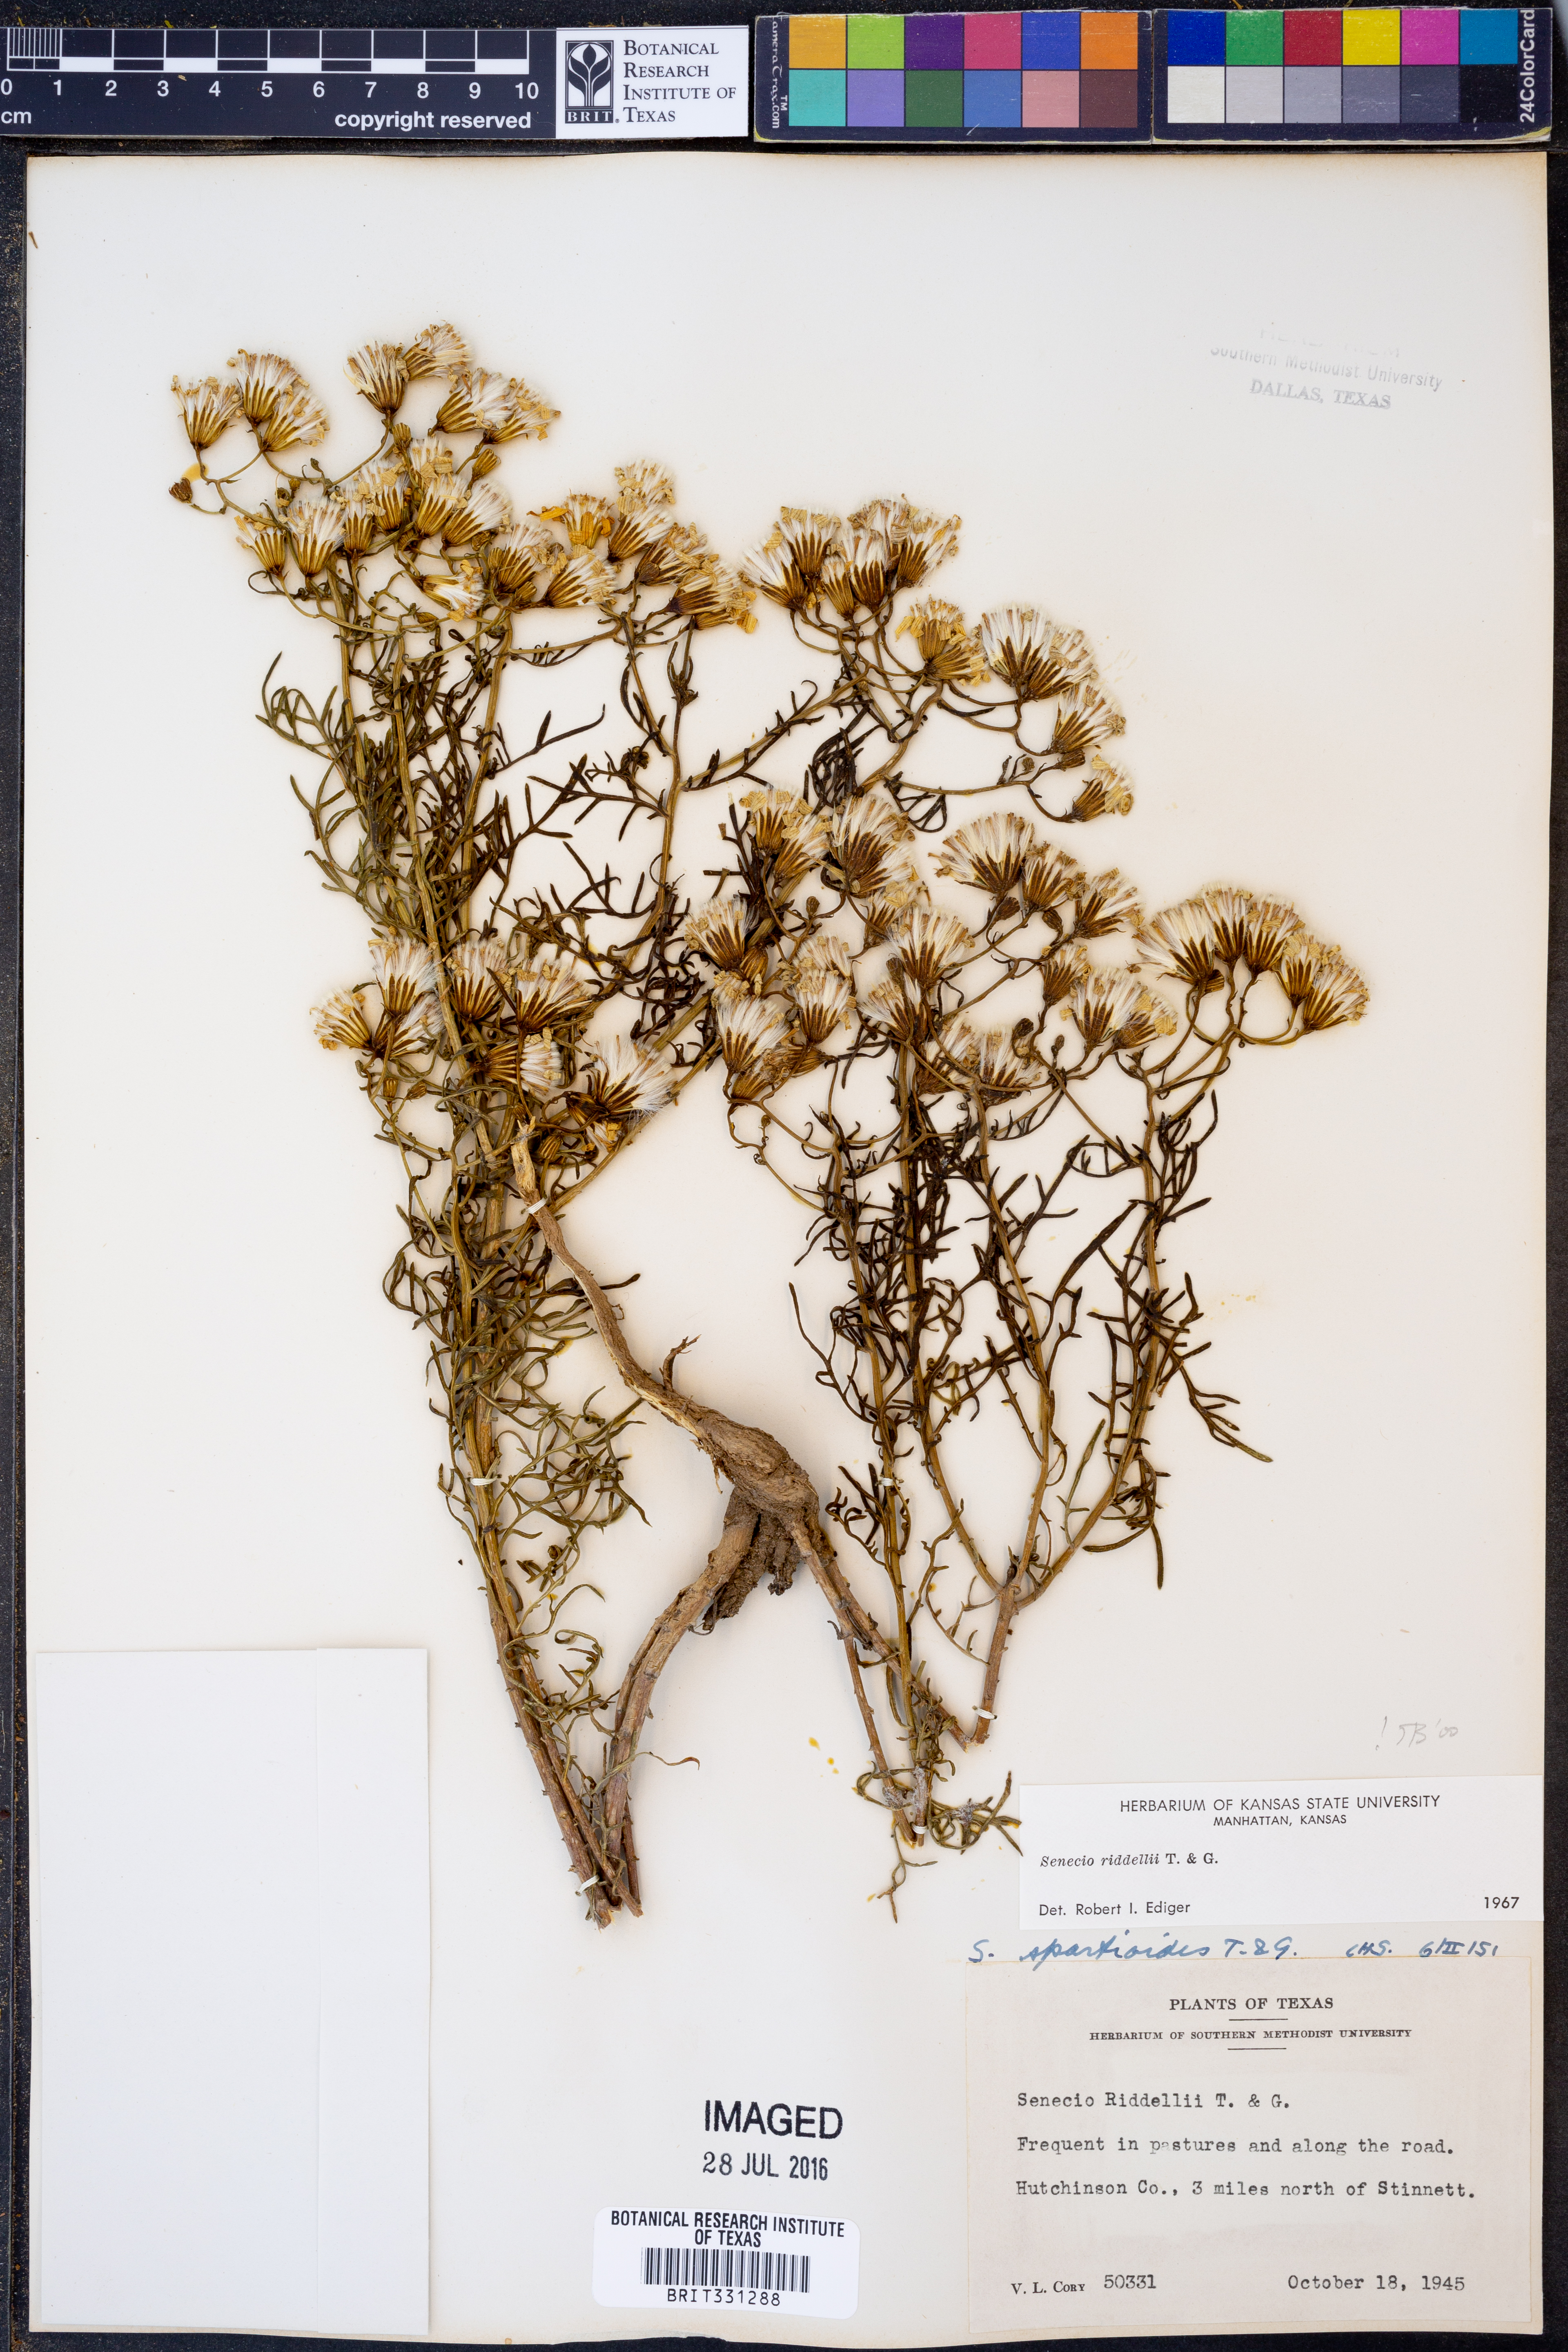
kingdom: Plantae
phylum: Tracheophyta
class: Magnoliopsida
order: Asterales
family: Asteraceae
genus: Senecio
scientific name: Senecio riddellii
